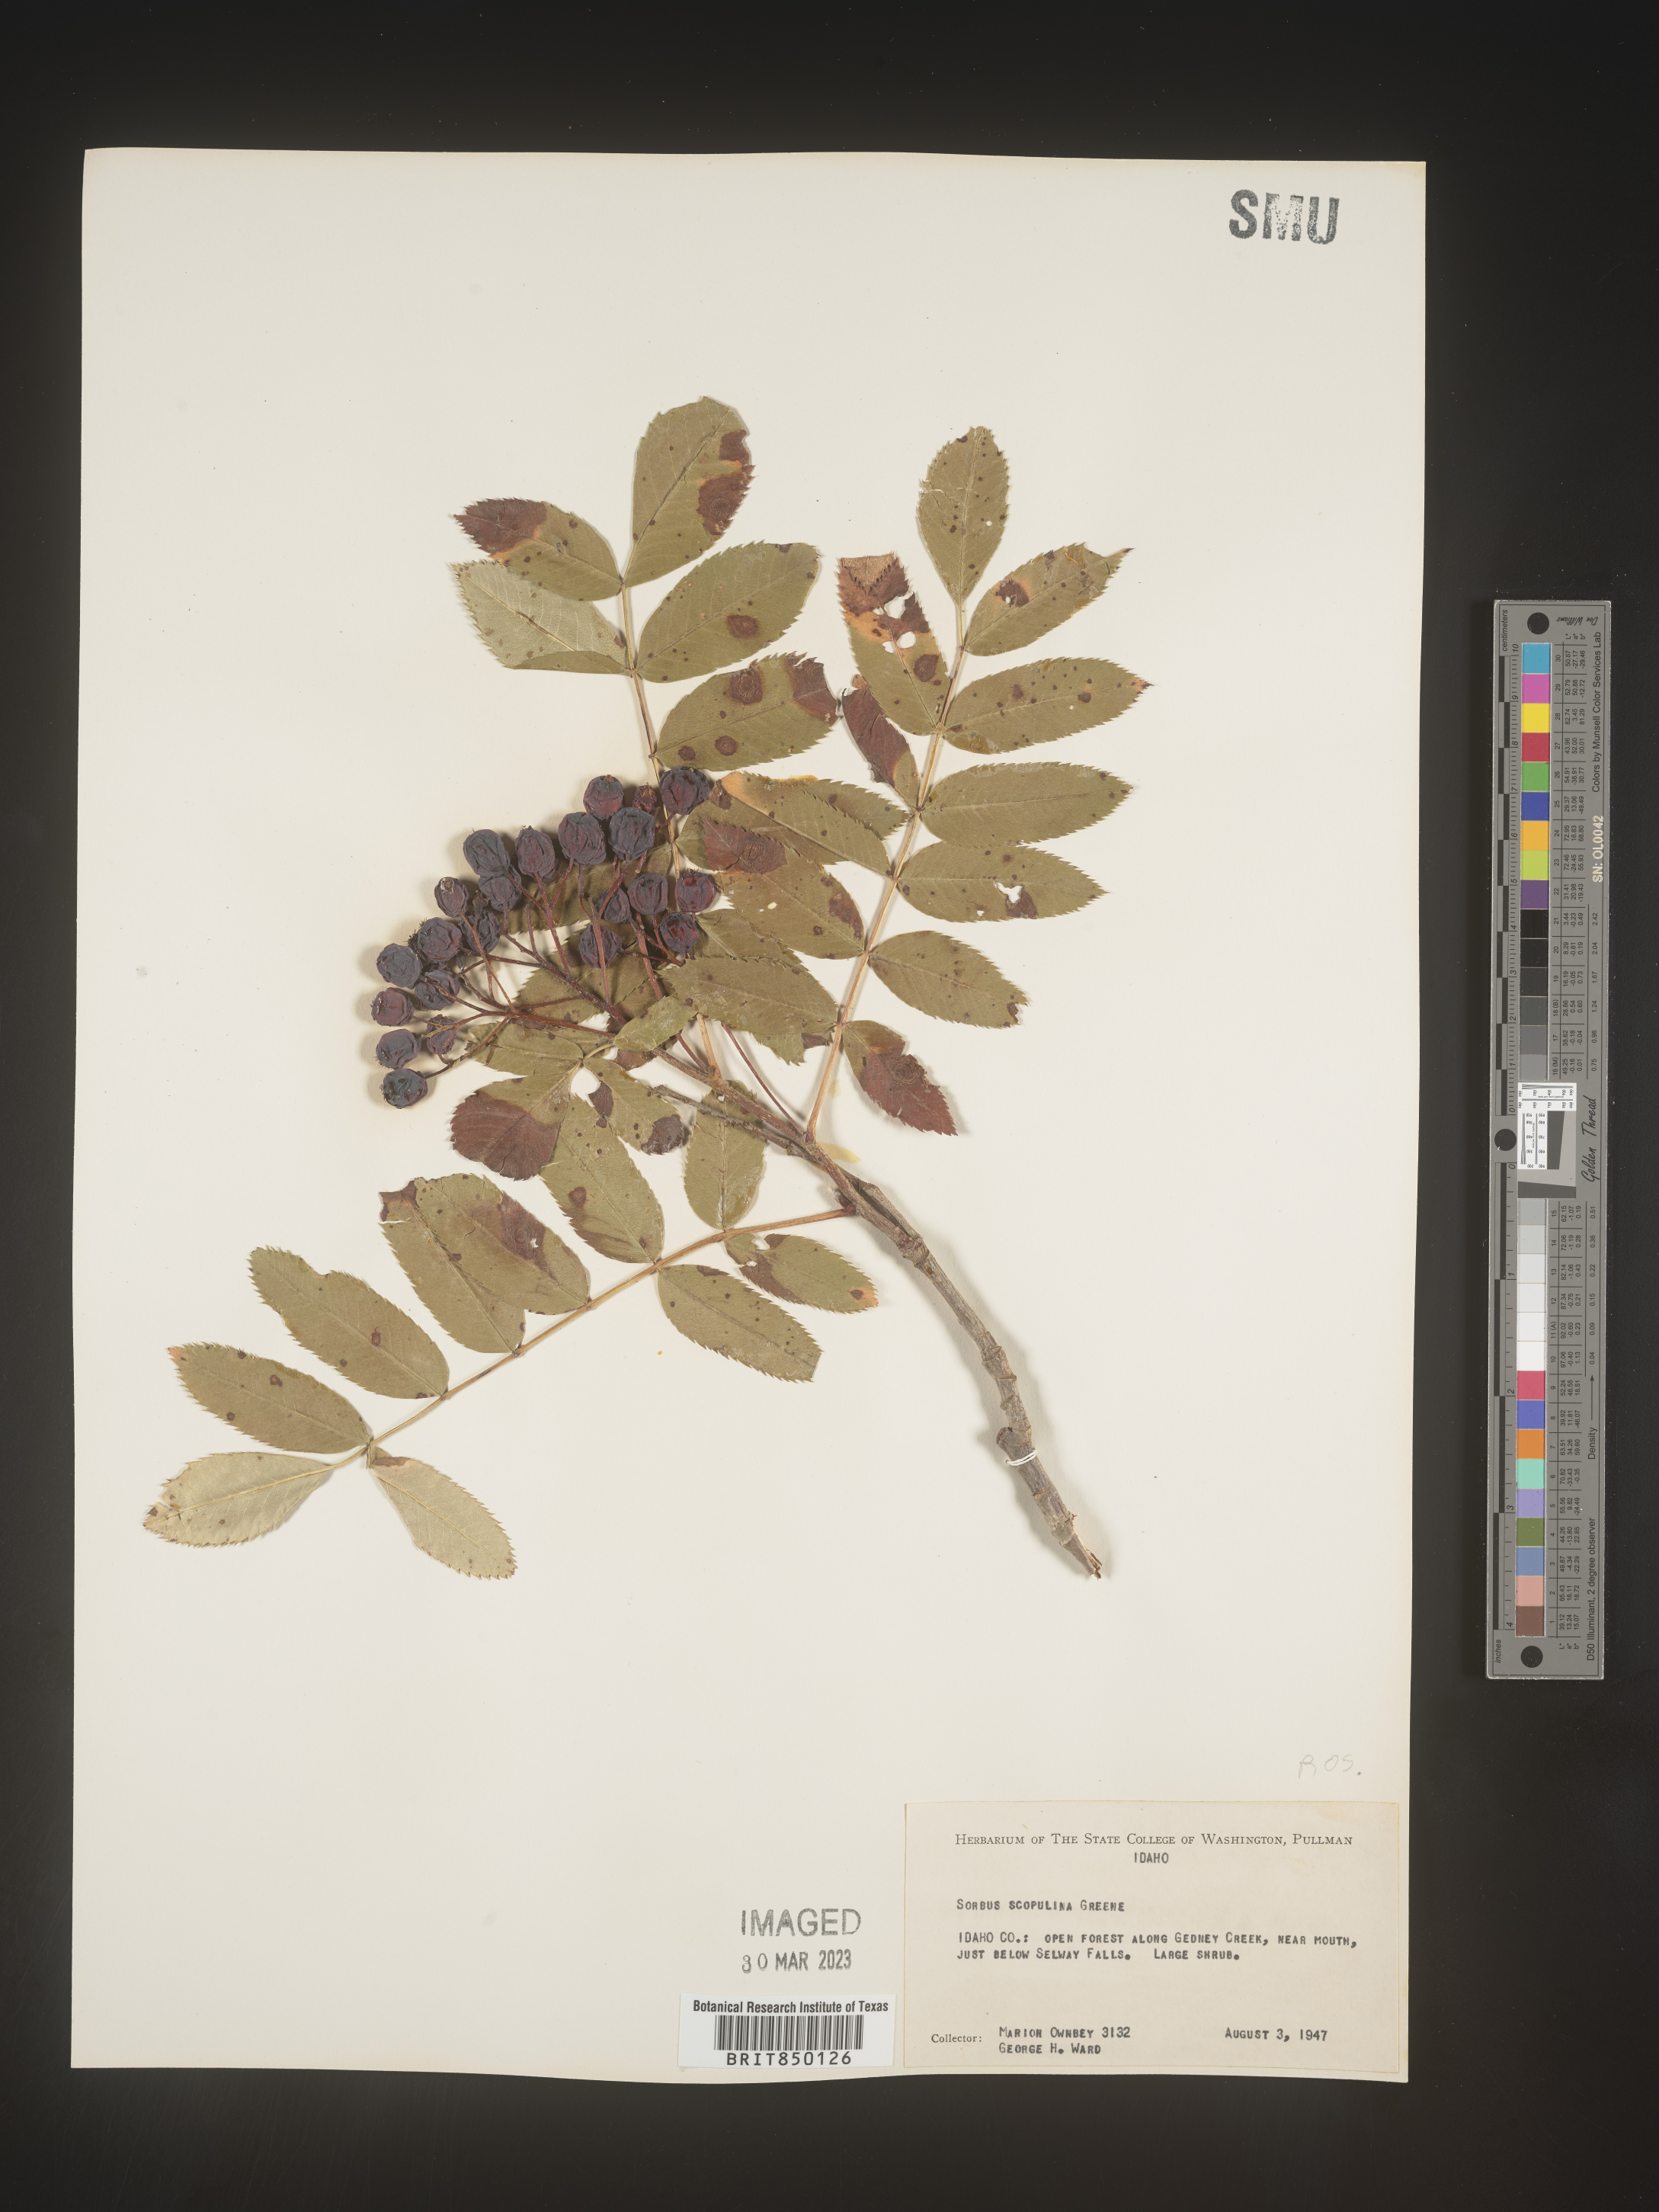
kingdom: Plantae
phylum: Tracheophyta
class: Magnoliopsida
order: Rosales
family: Rosaceae
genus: Sorbus
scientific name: Sorbus scopulina
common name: Greene's mountain-ash
